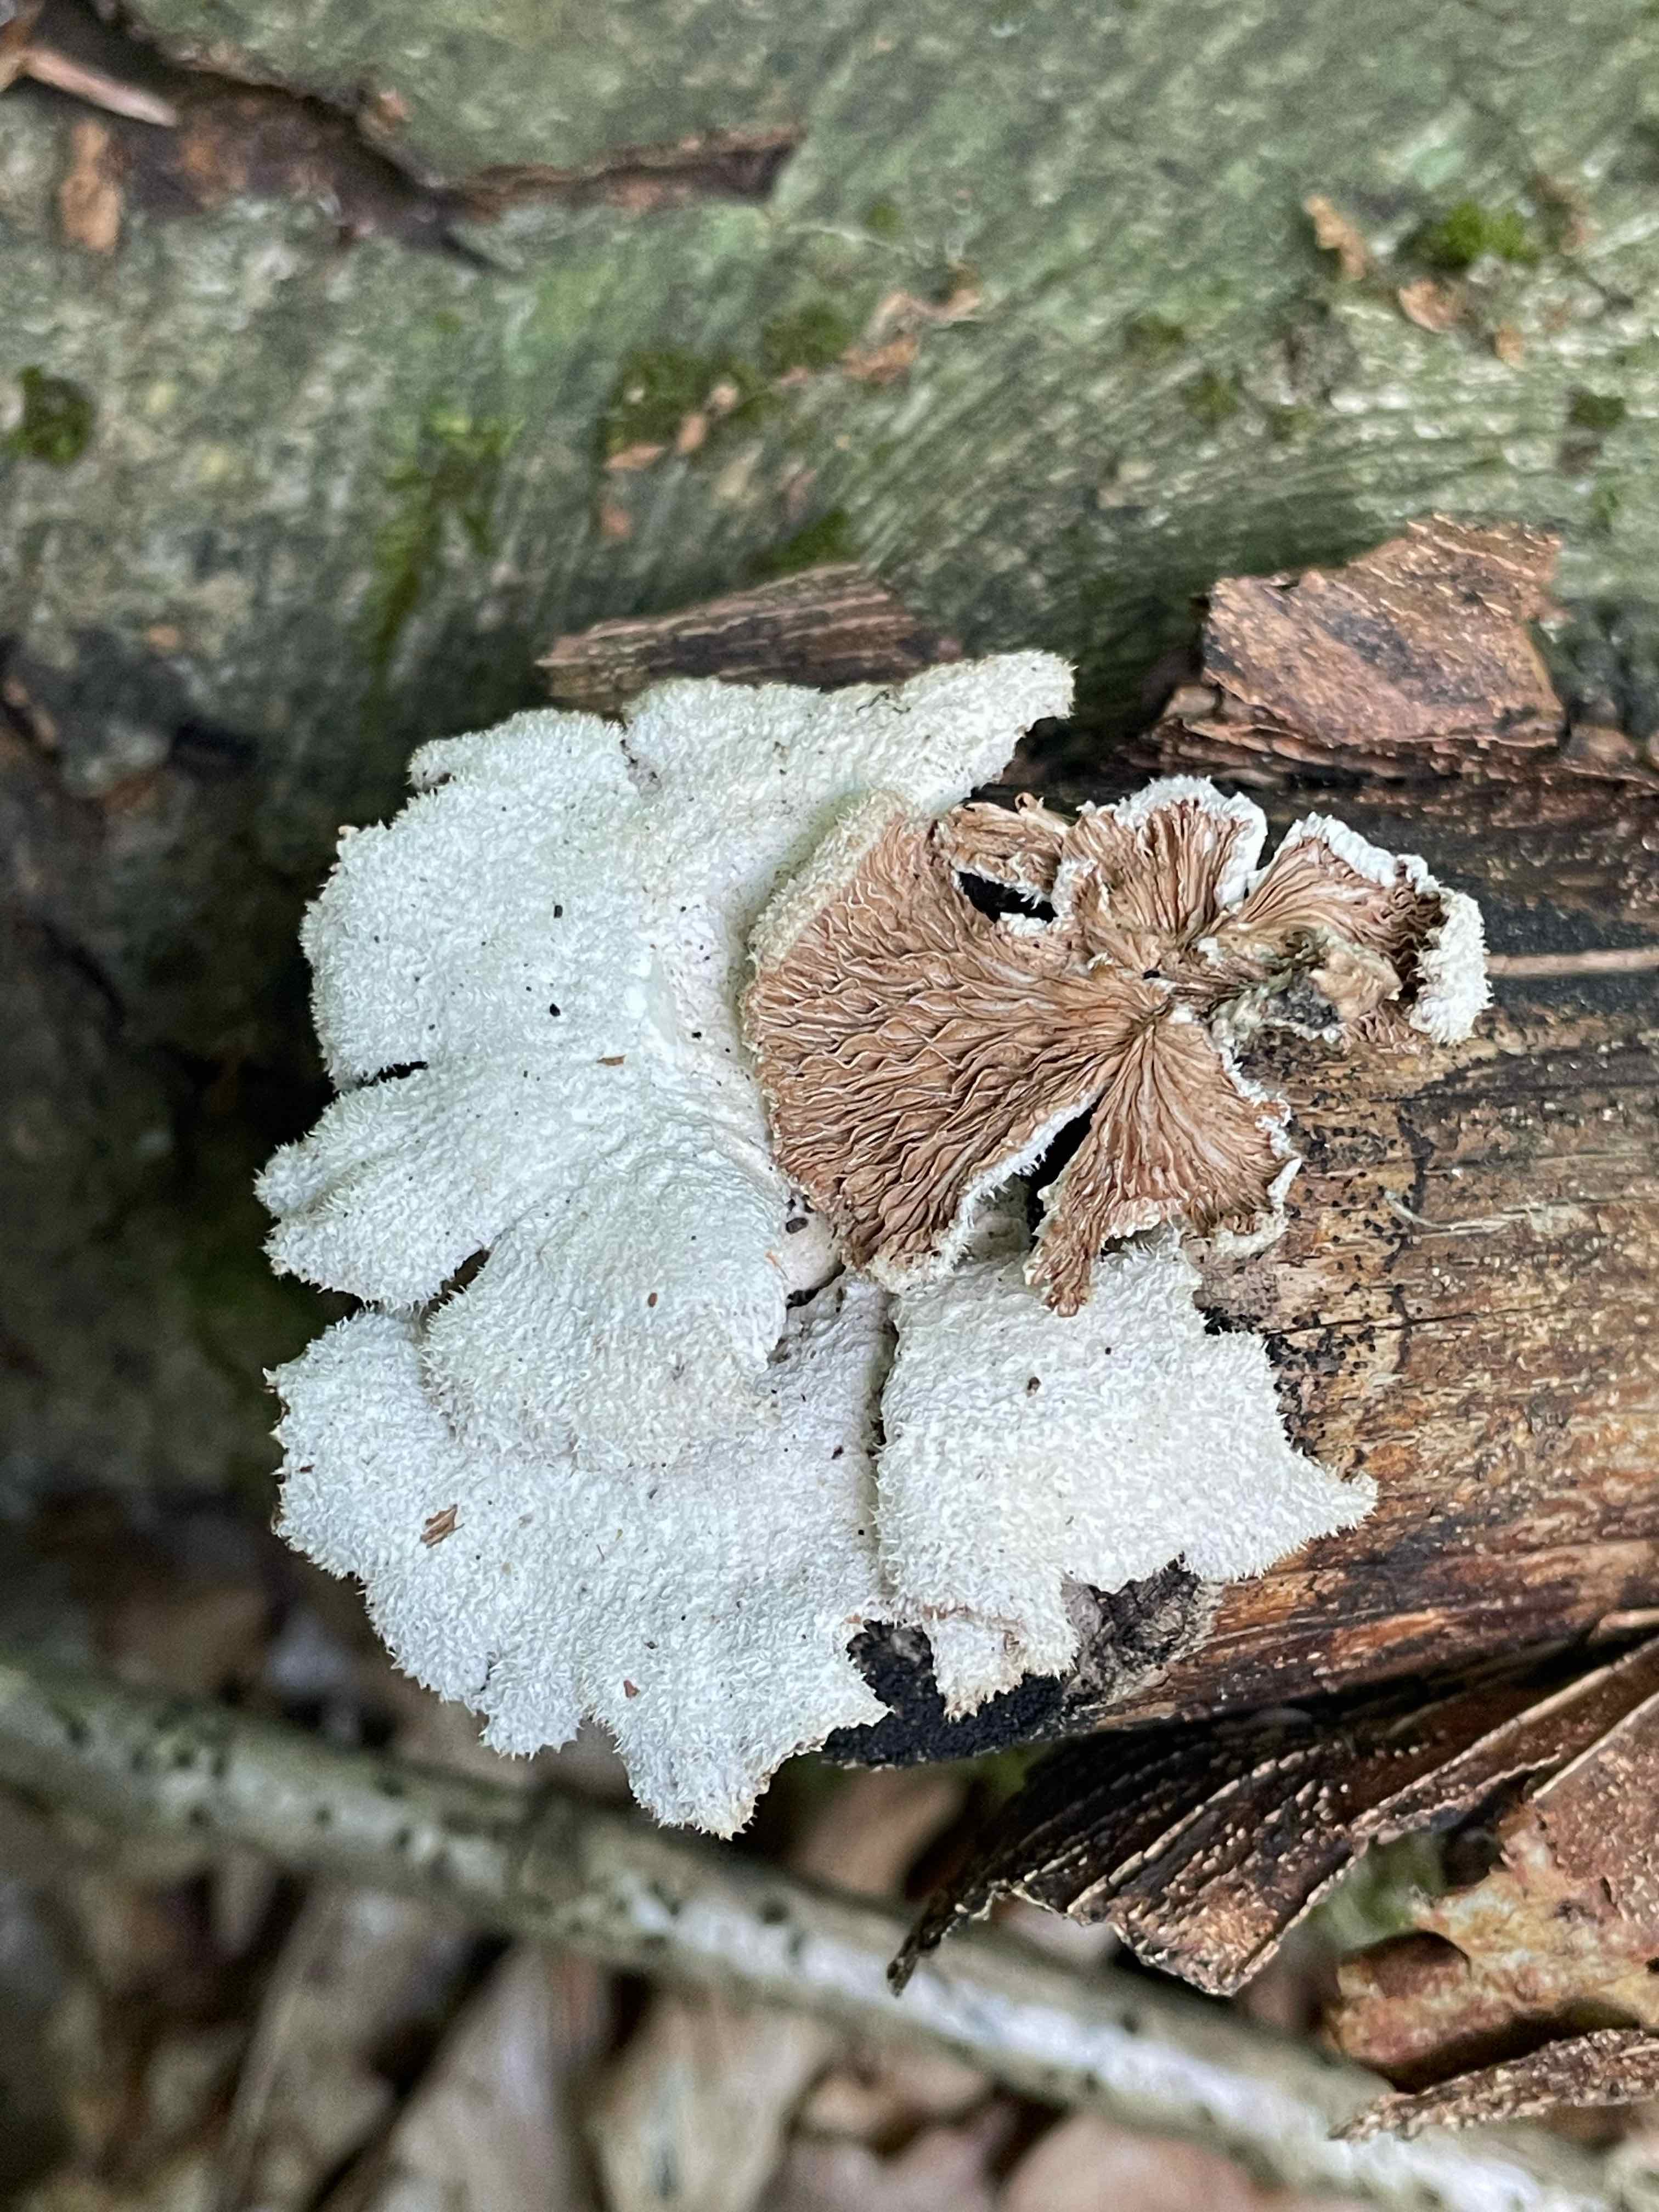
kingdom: Fungi
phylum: Basidiomycota
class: Agaricomycetes
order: Agaricales
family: Schizophyllaceae
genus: Schizophyllum
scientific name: Schizophyllum commune
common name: kløvblad
